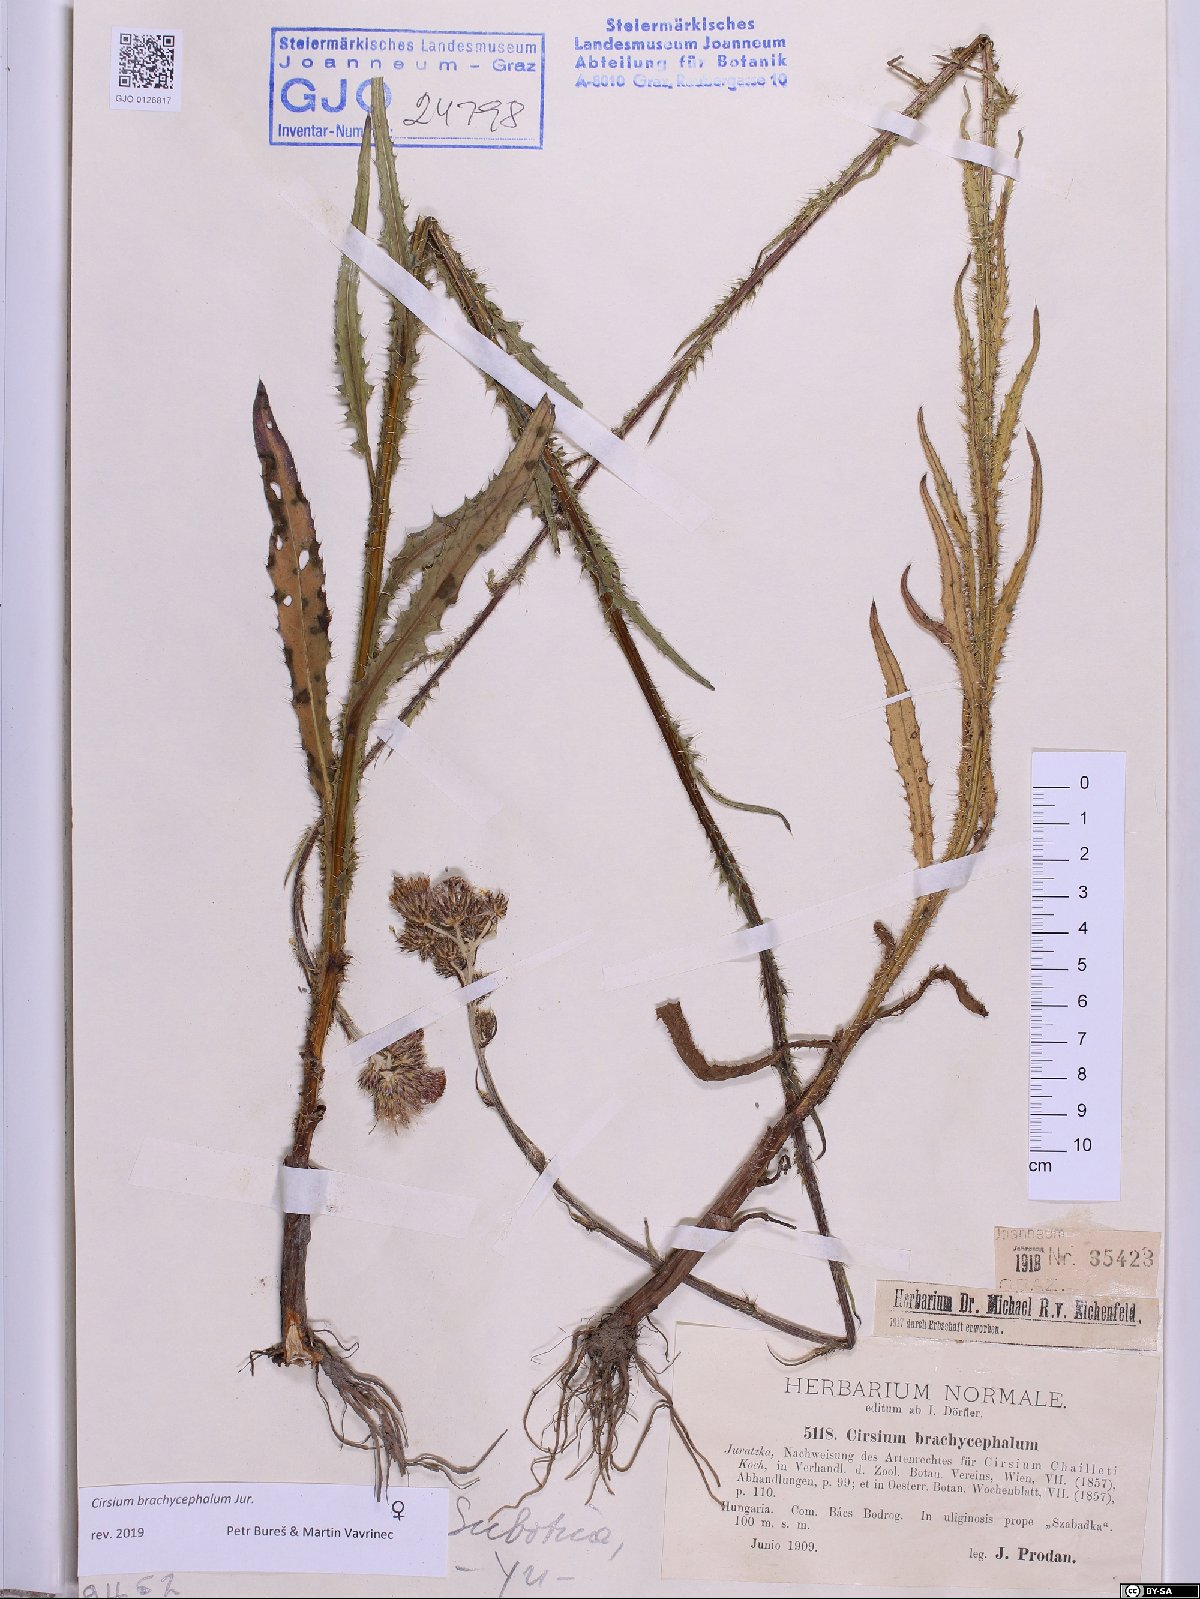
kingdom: Plantae
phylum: Tracheophyta
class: Magnoliopsida
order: Asterales
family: Asteraceae
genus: Cirsium
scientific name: Cirsium brachycephalum
